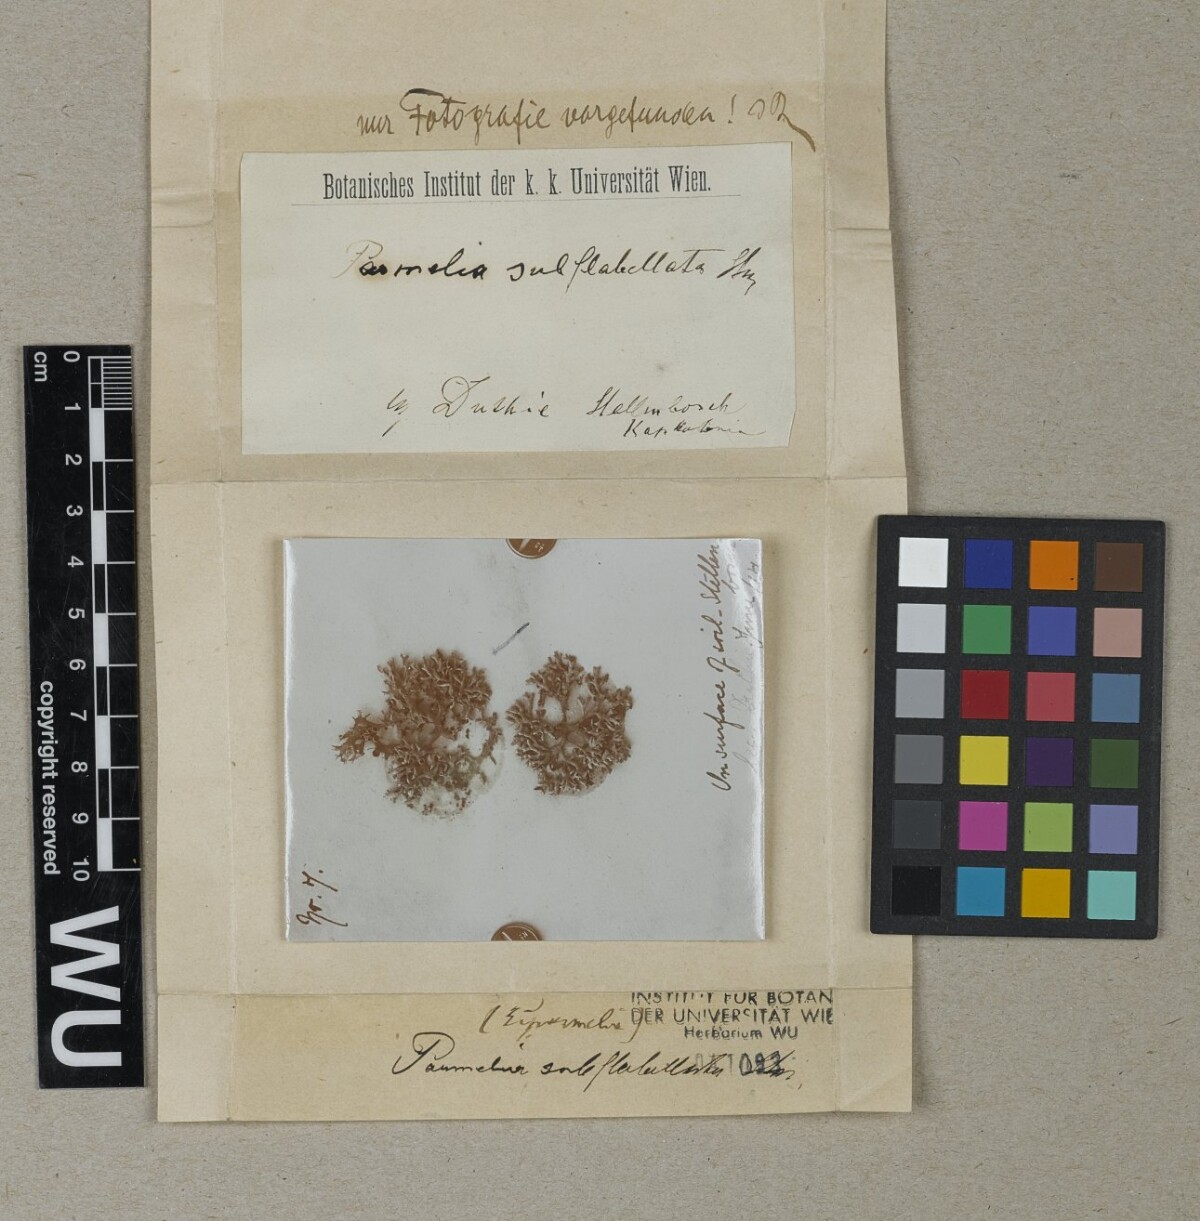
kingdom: Fungi
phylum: Ascomycota
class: Lecanoromycetes
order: Lecanorales
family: Parmeliaceae
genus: Parmelia
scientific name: Parmelia
